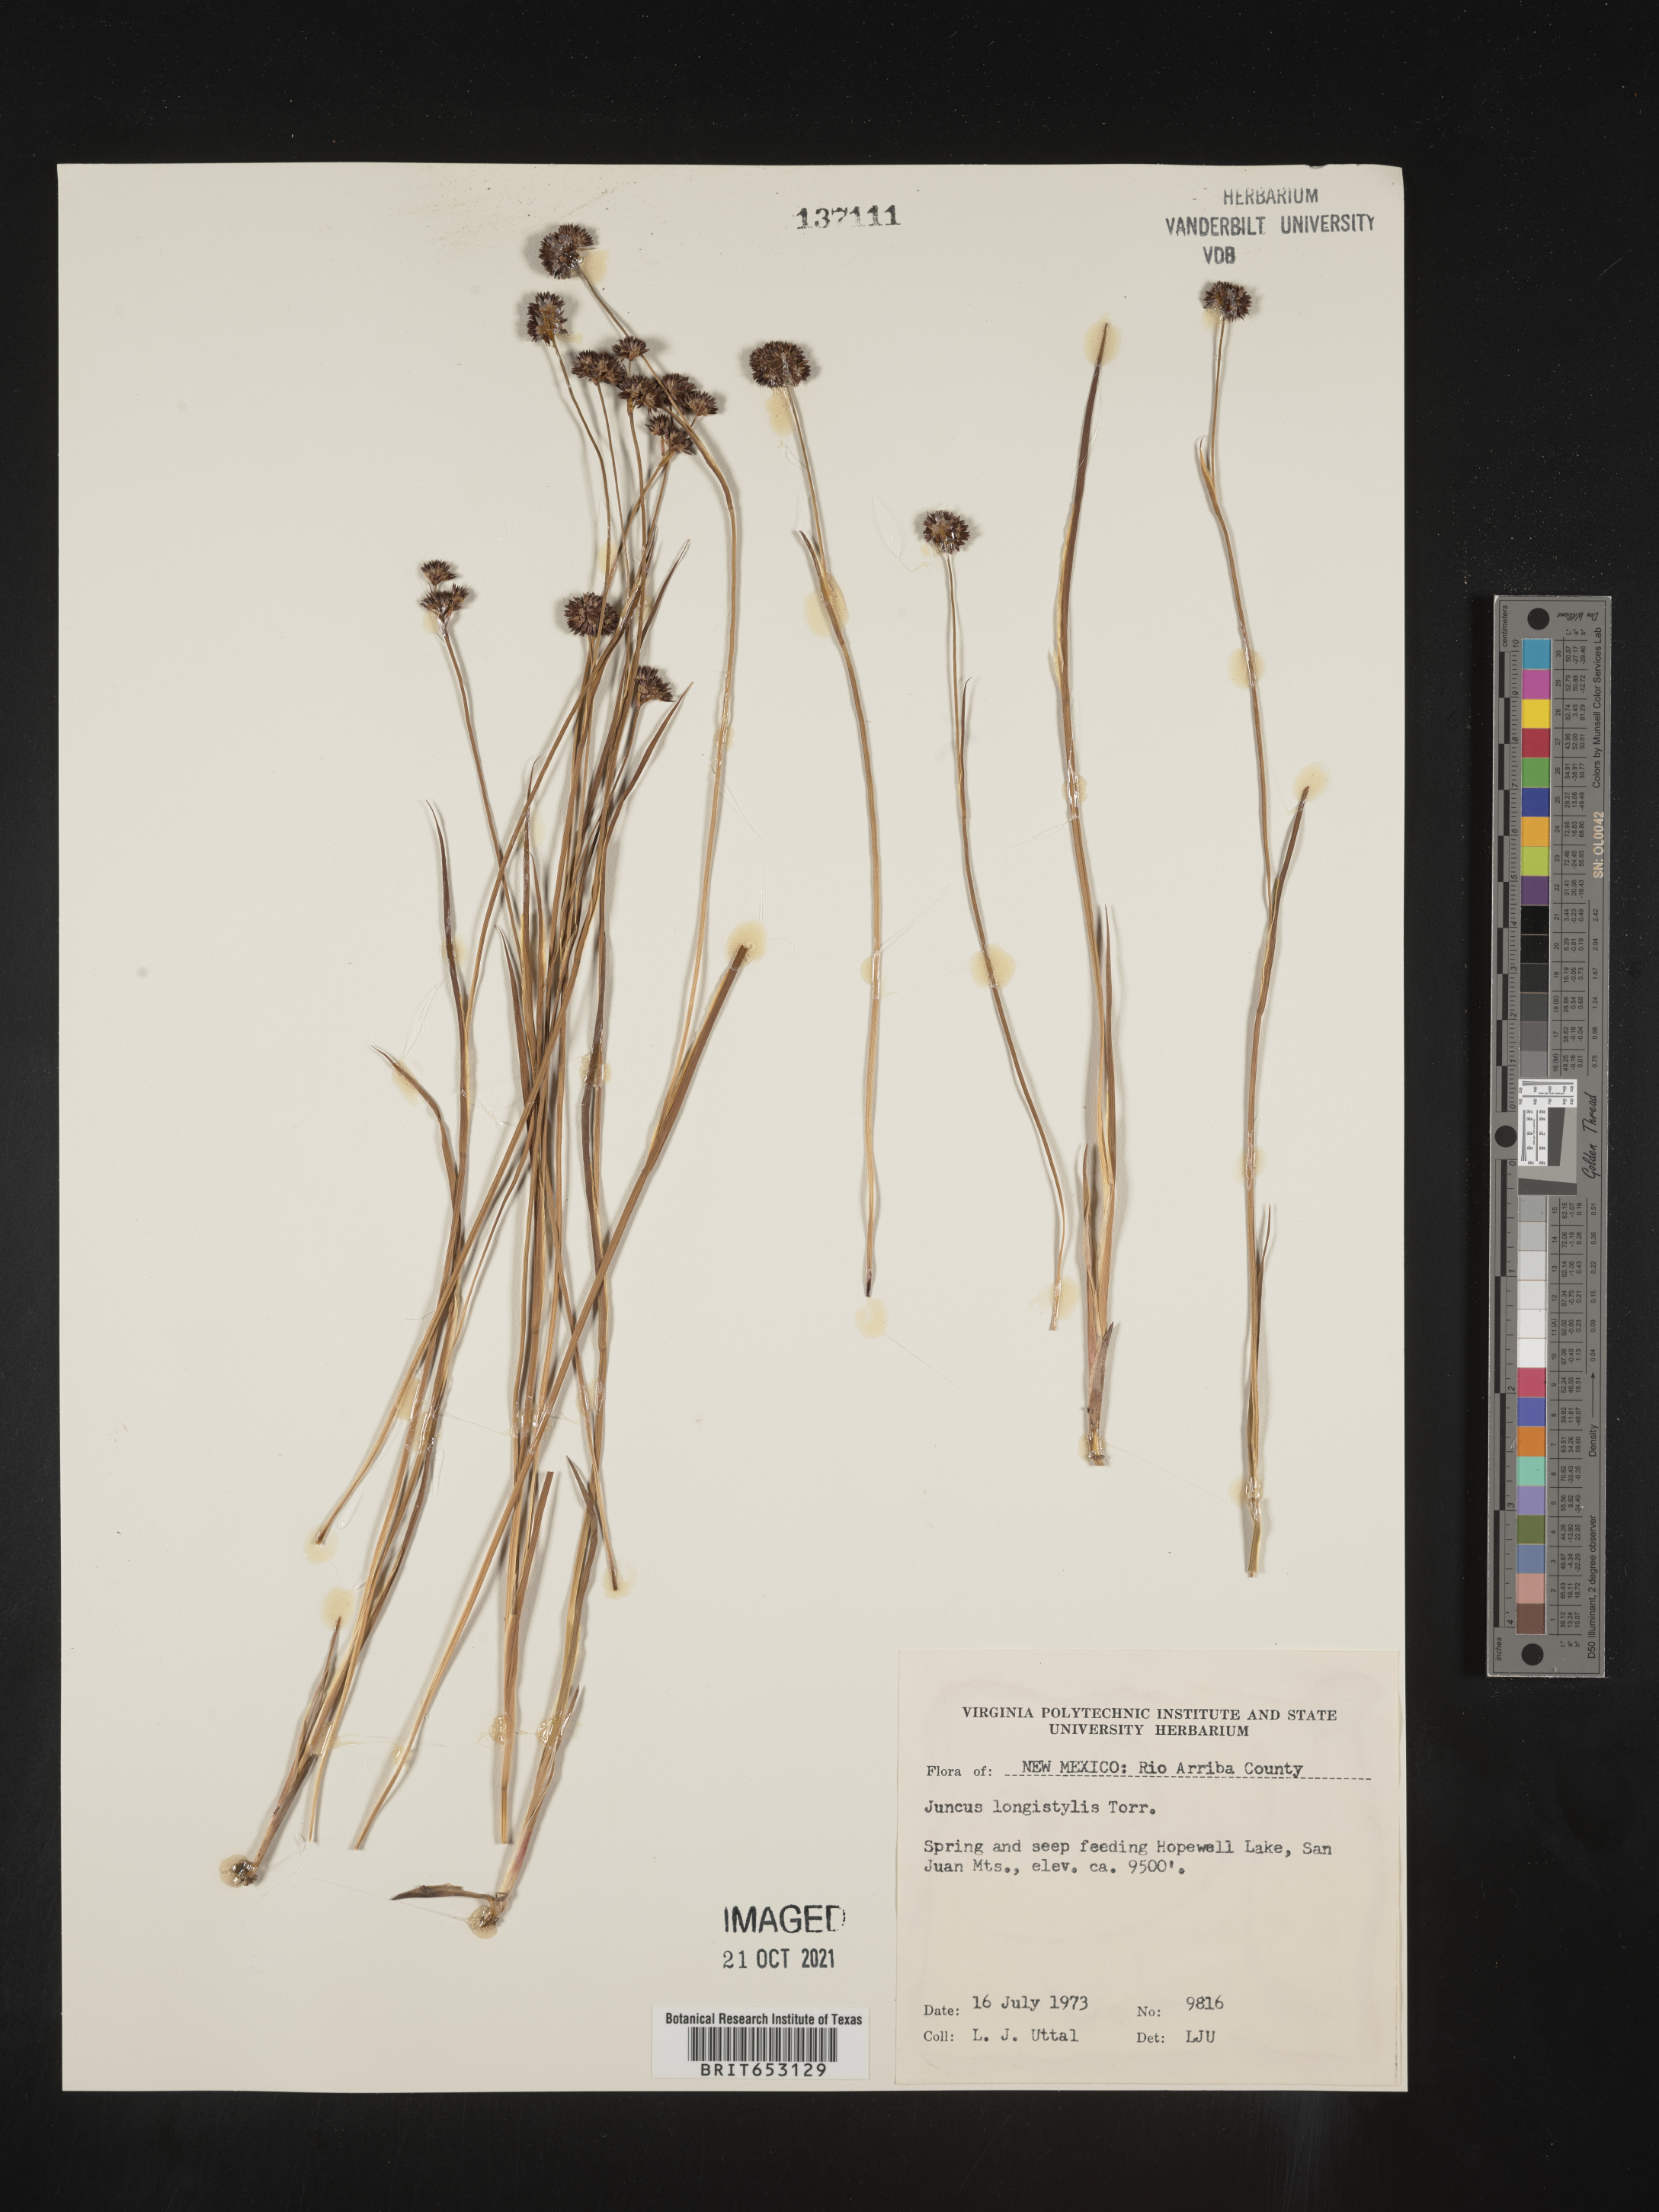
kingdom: Plantae
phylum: Tracheophyta
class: Liliopsida
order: Poales
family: Juncaceae
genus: Juncus
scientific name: Juncus longistylis
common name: Long-style rush
